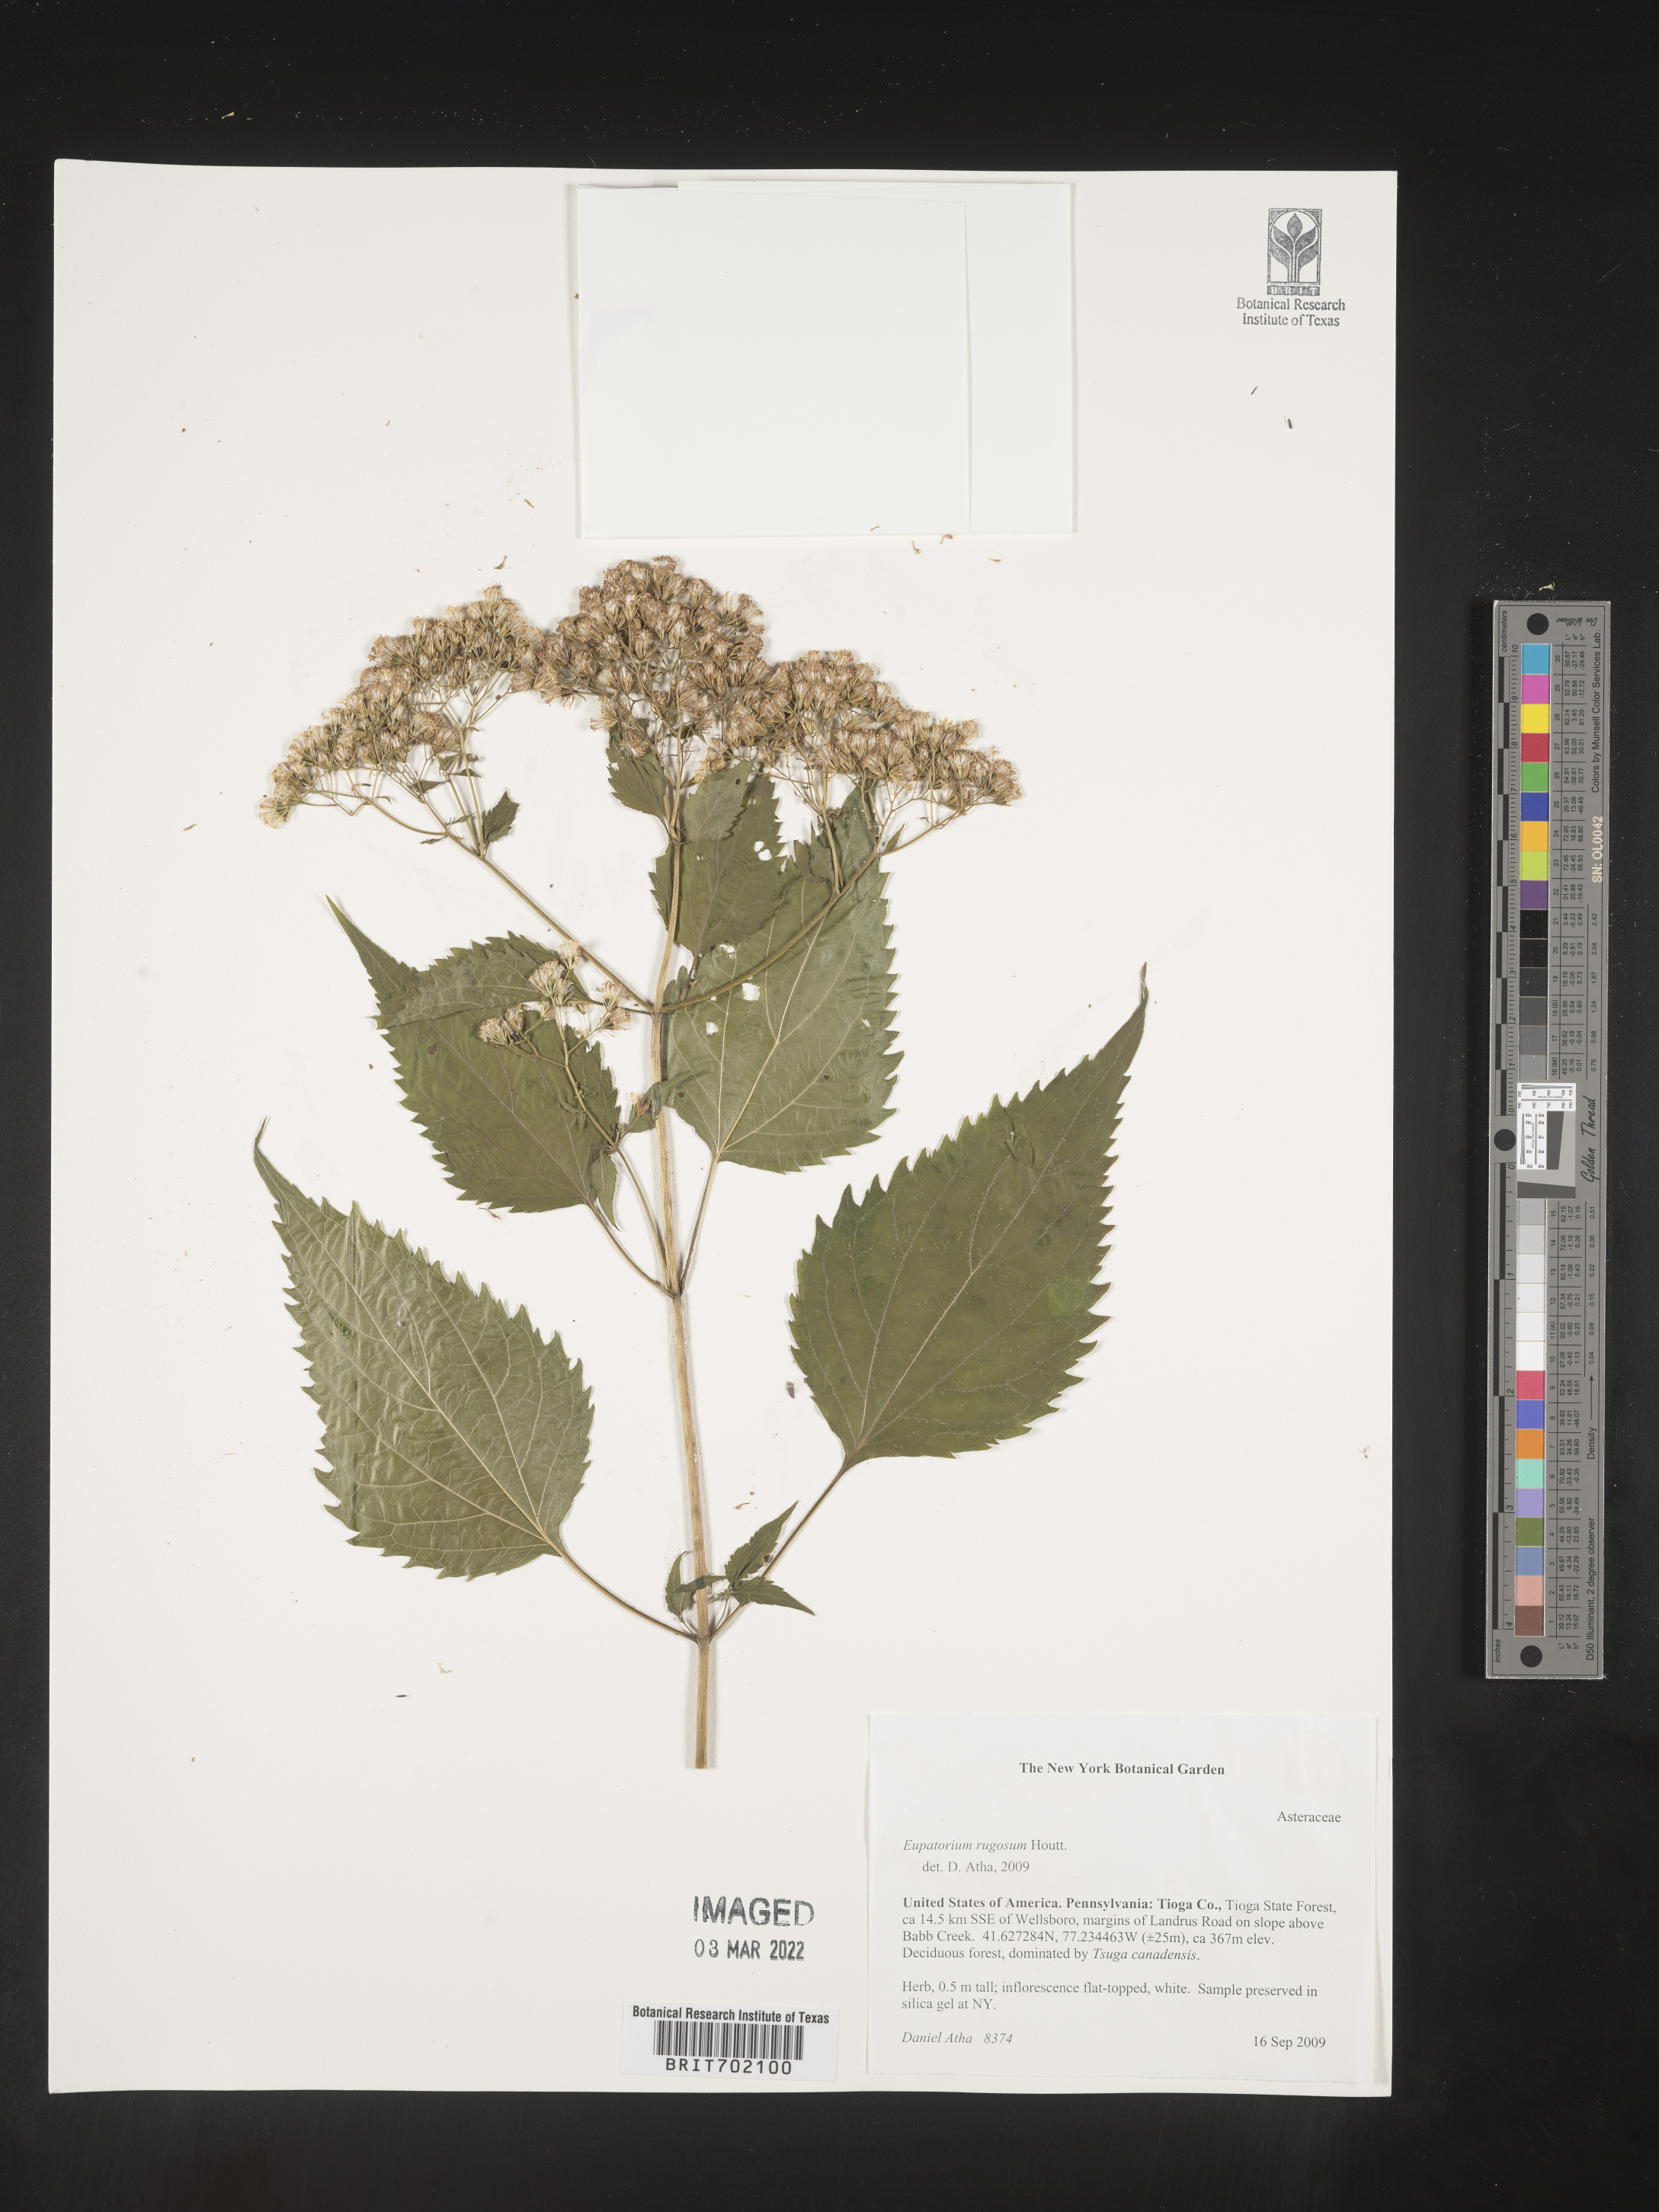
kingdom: Plantae
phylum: Tracheophyta
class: Magnoliopsida
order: Asterales
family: Asteraceae
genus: Cronquistianthus
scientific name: Cronquistianthus bulliferus
